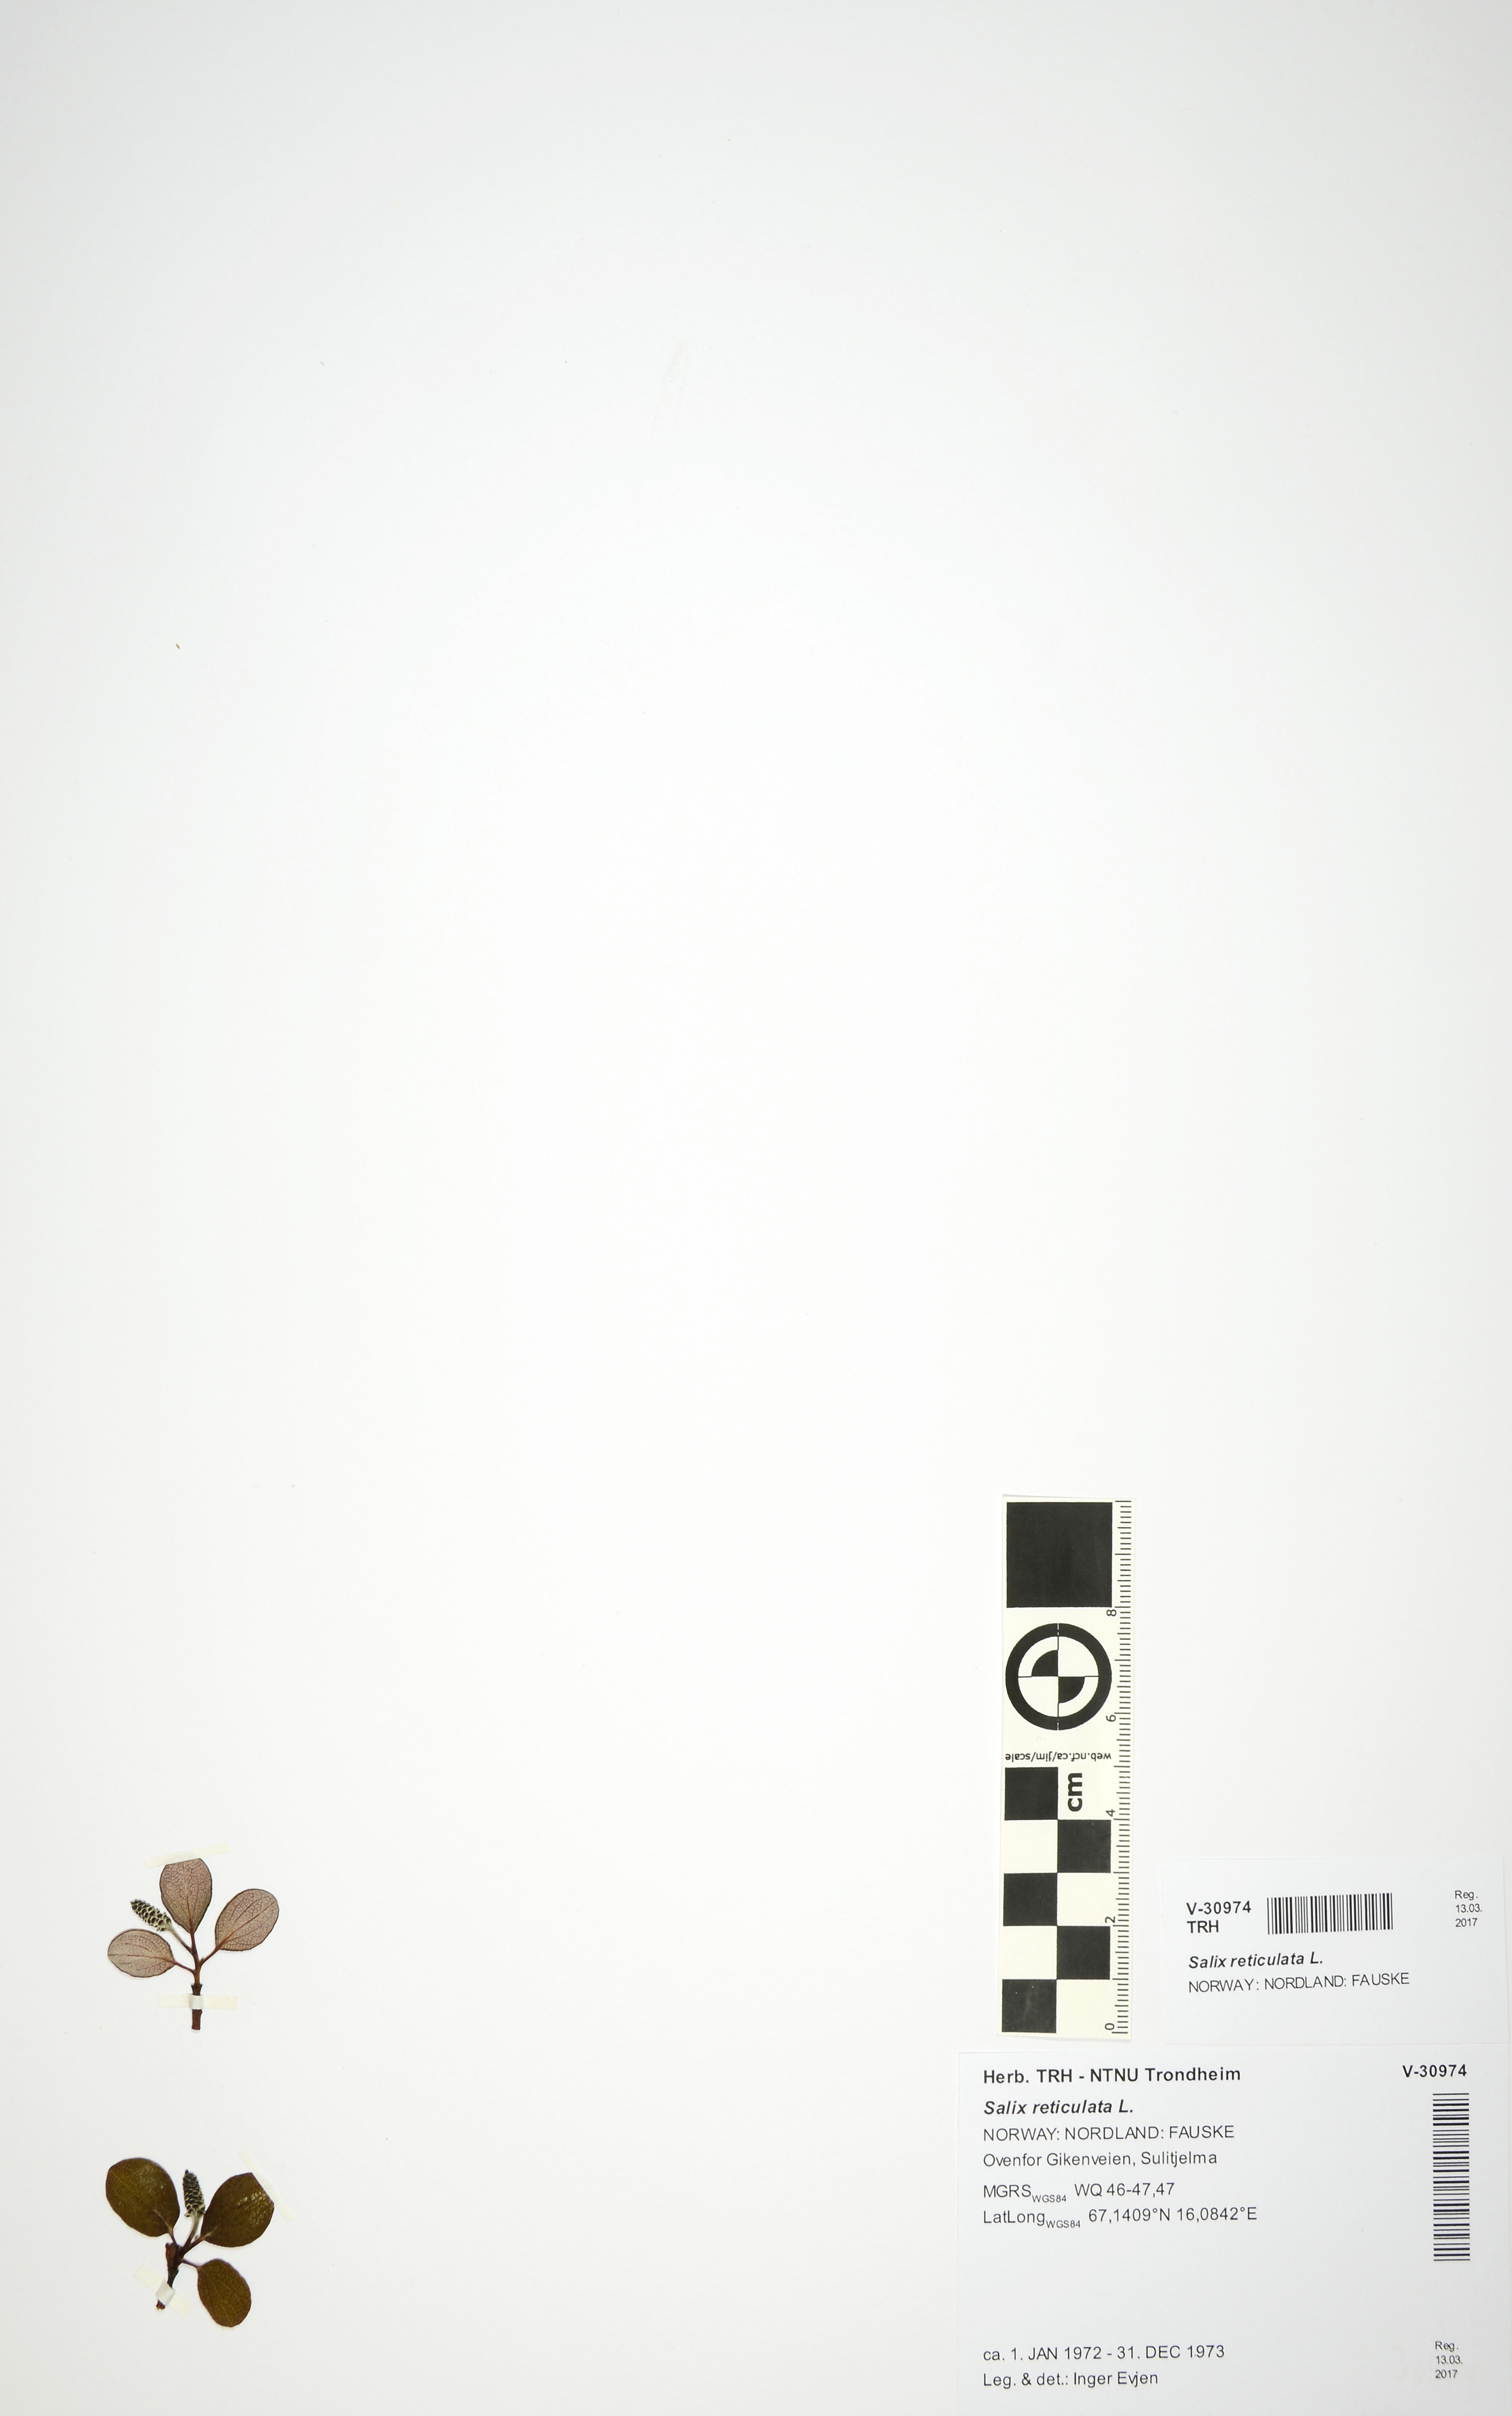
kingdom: Plantae
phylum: Tracheophyta
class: Magnoliopsida
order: Malpighiales
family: Salicaceae
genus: Salix
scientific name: Salix reticulata
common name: Net-leaved willow
